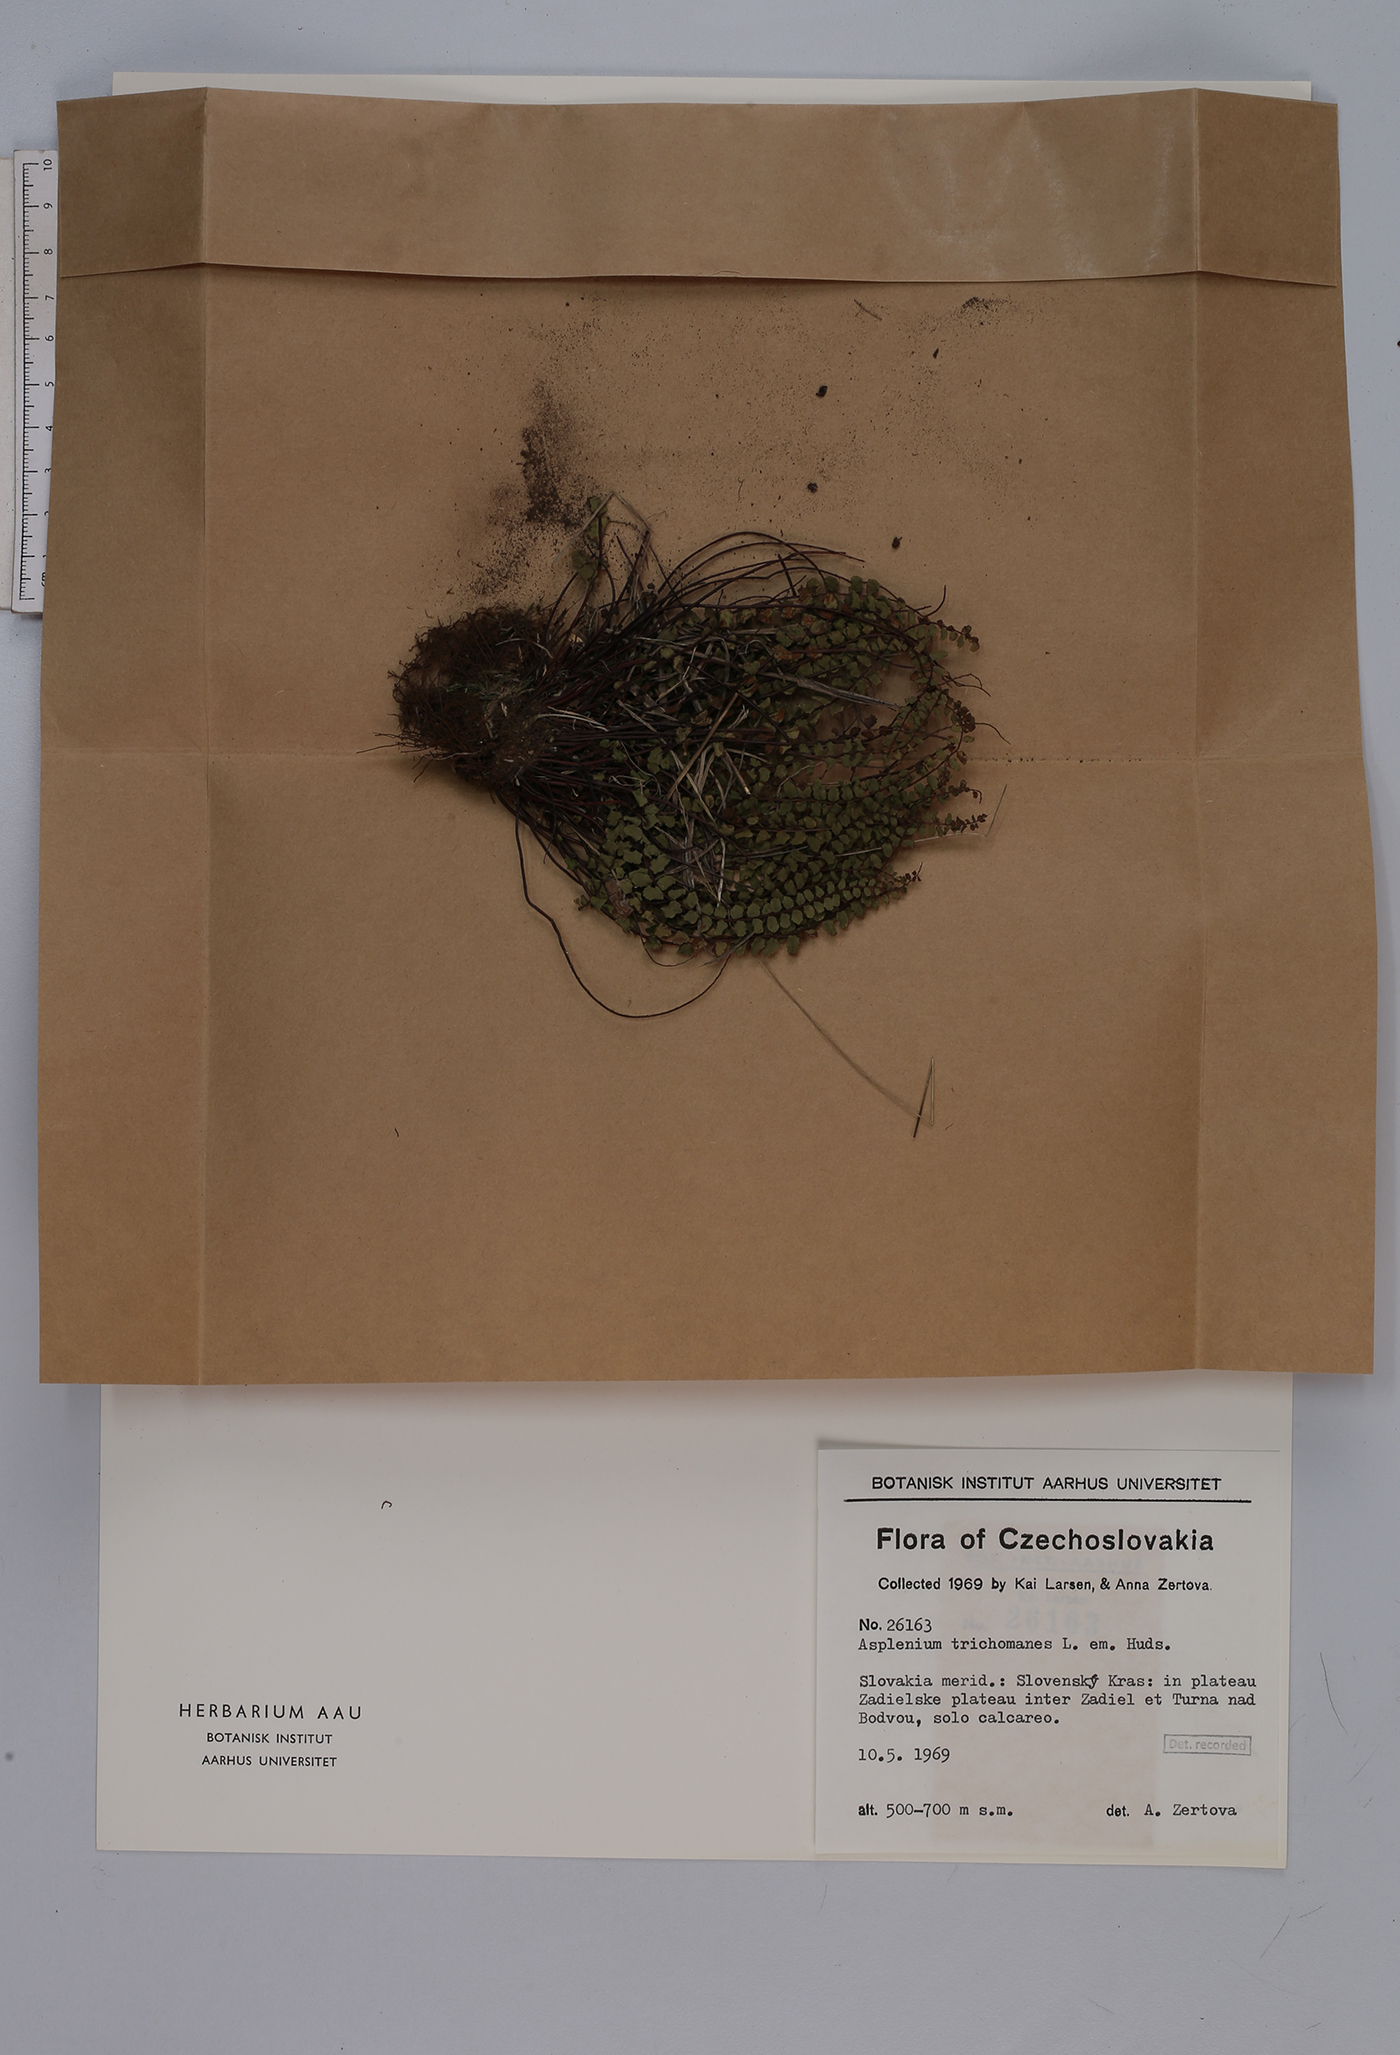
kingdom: Plantae
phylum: Tracheophyta
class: Polypodiopsida
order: Polypodiales
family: Aspleniaceae
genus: Asplenium
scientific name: Asplenium trichomanes
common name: Maidenhair spleenwort
